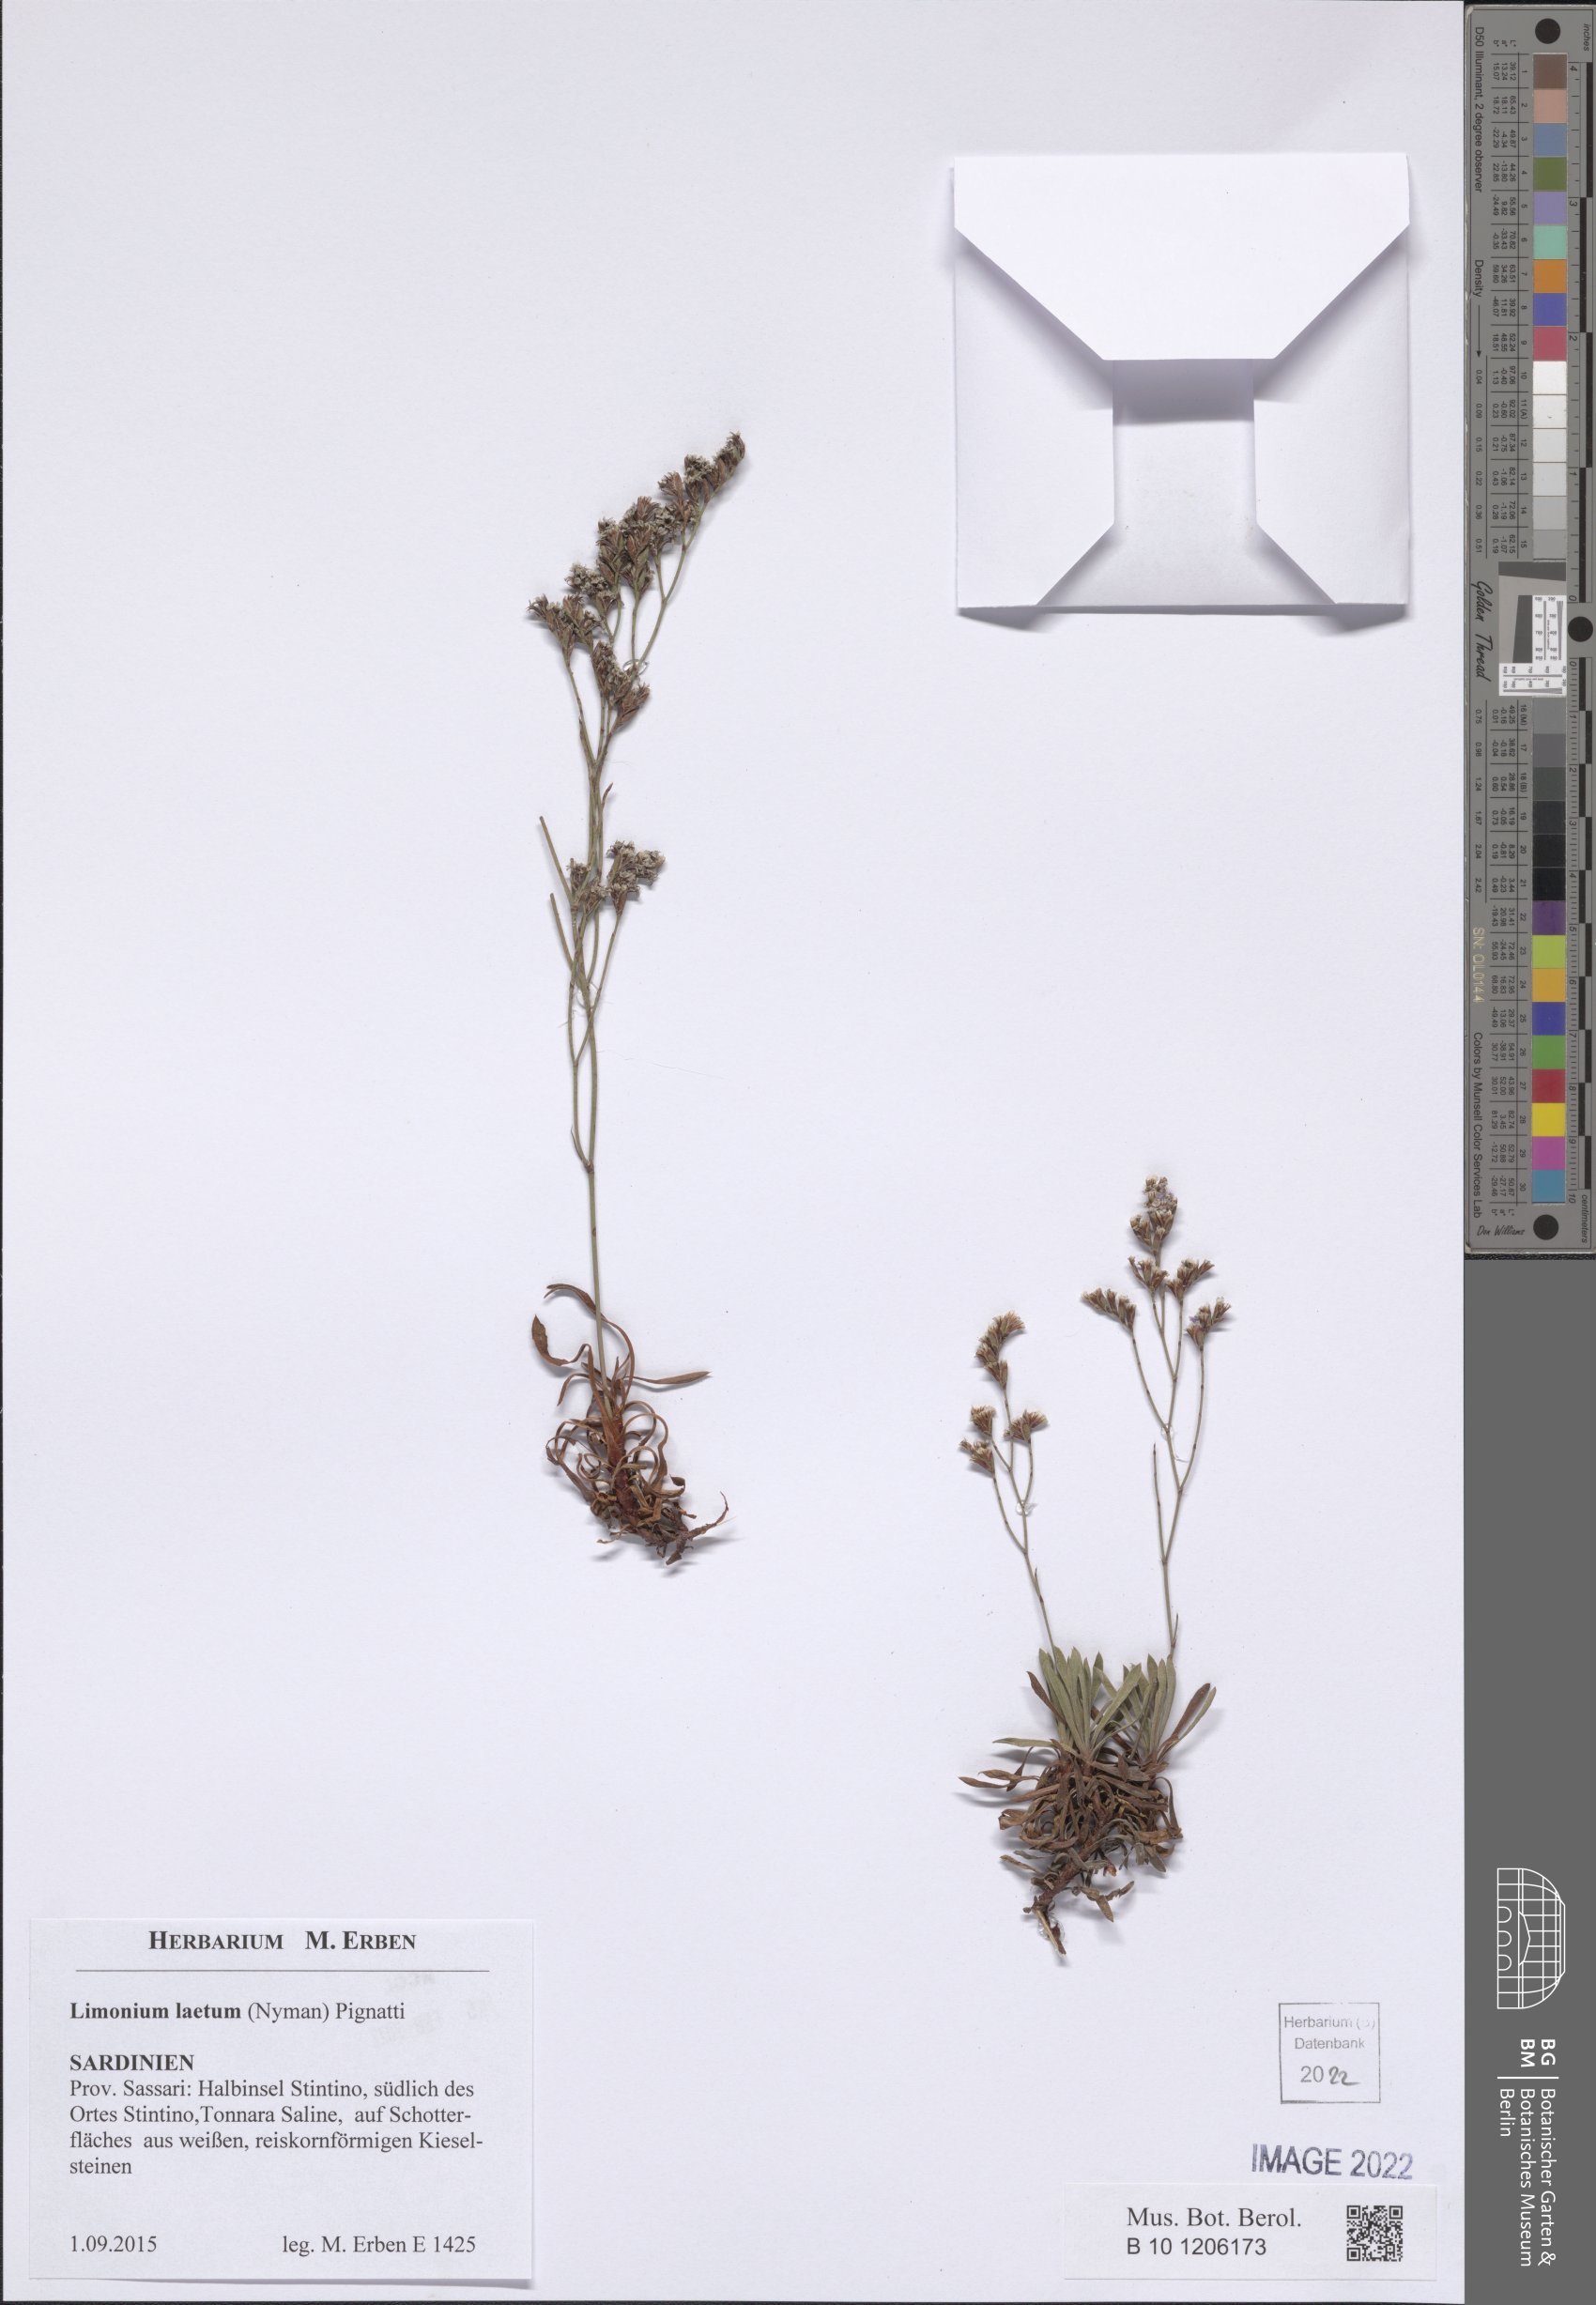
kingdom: Plantae
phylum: Tracheophyta
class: Magnoliopsida
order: Caryophyllales
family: Plumbaginaceae
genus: Limonium
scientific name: Limonium laetum
